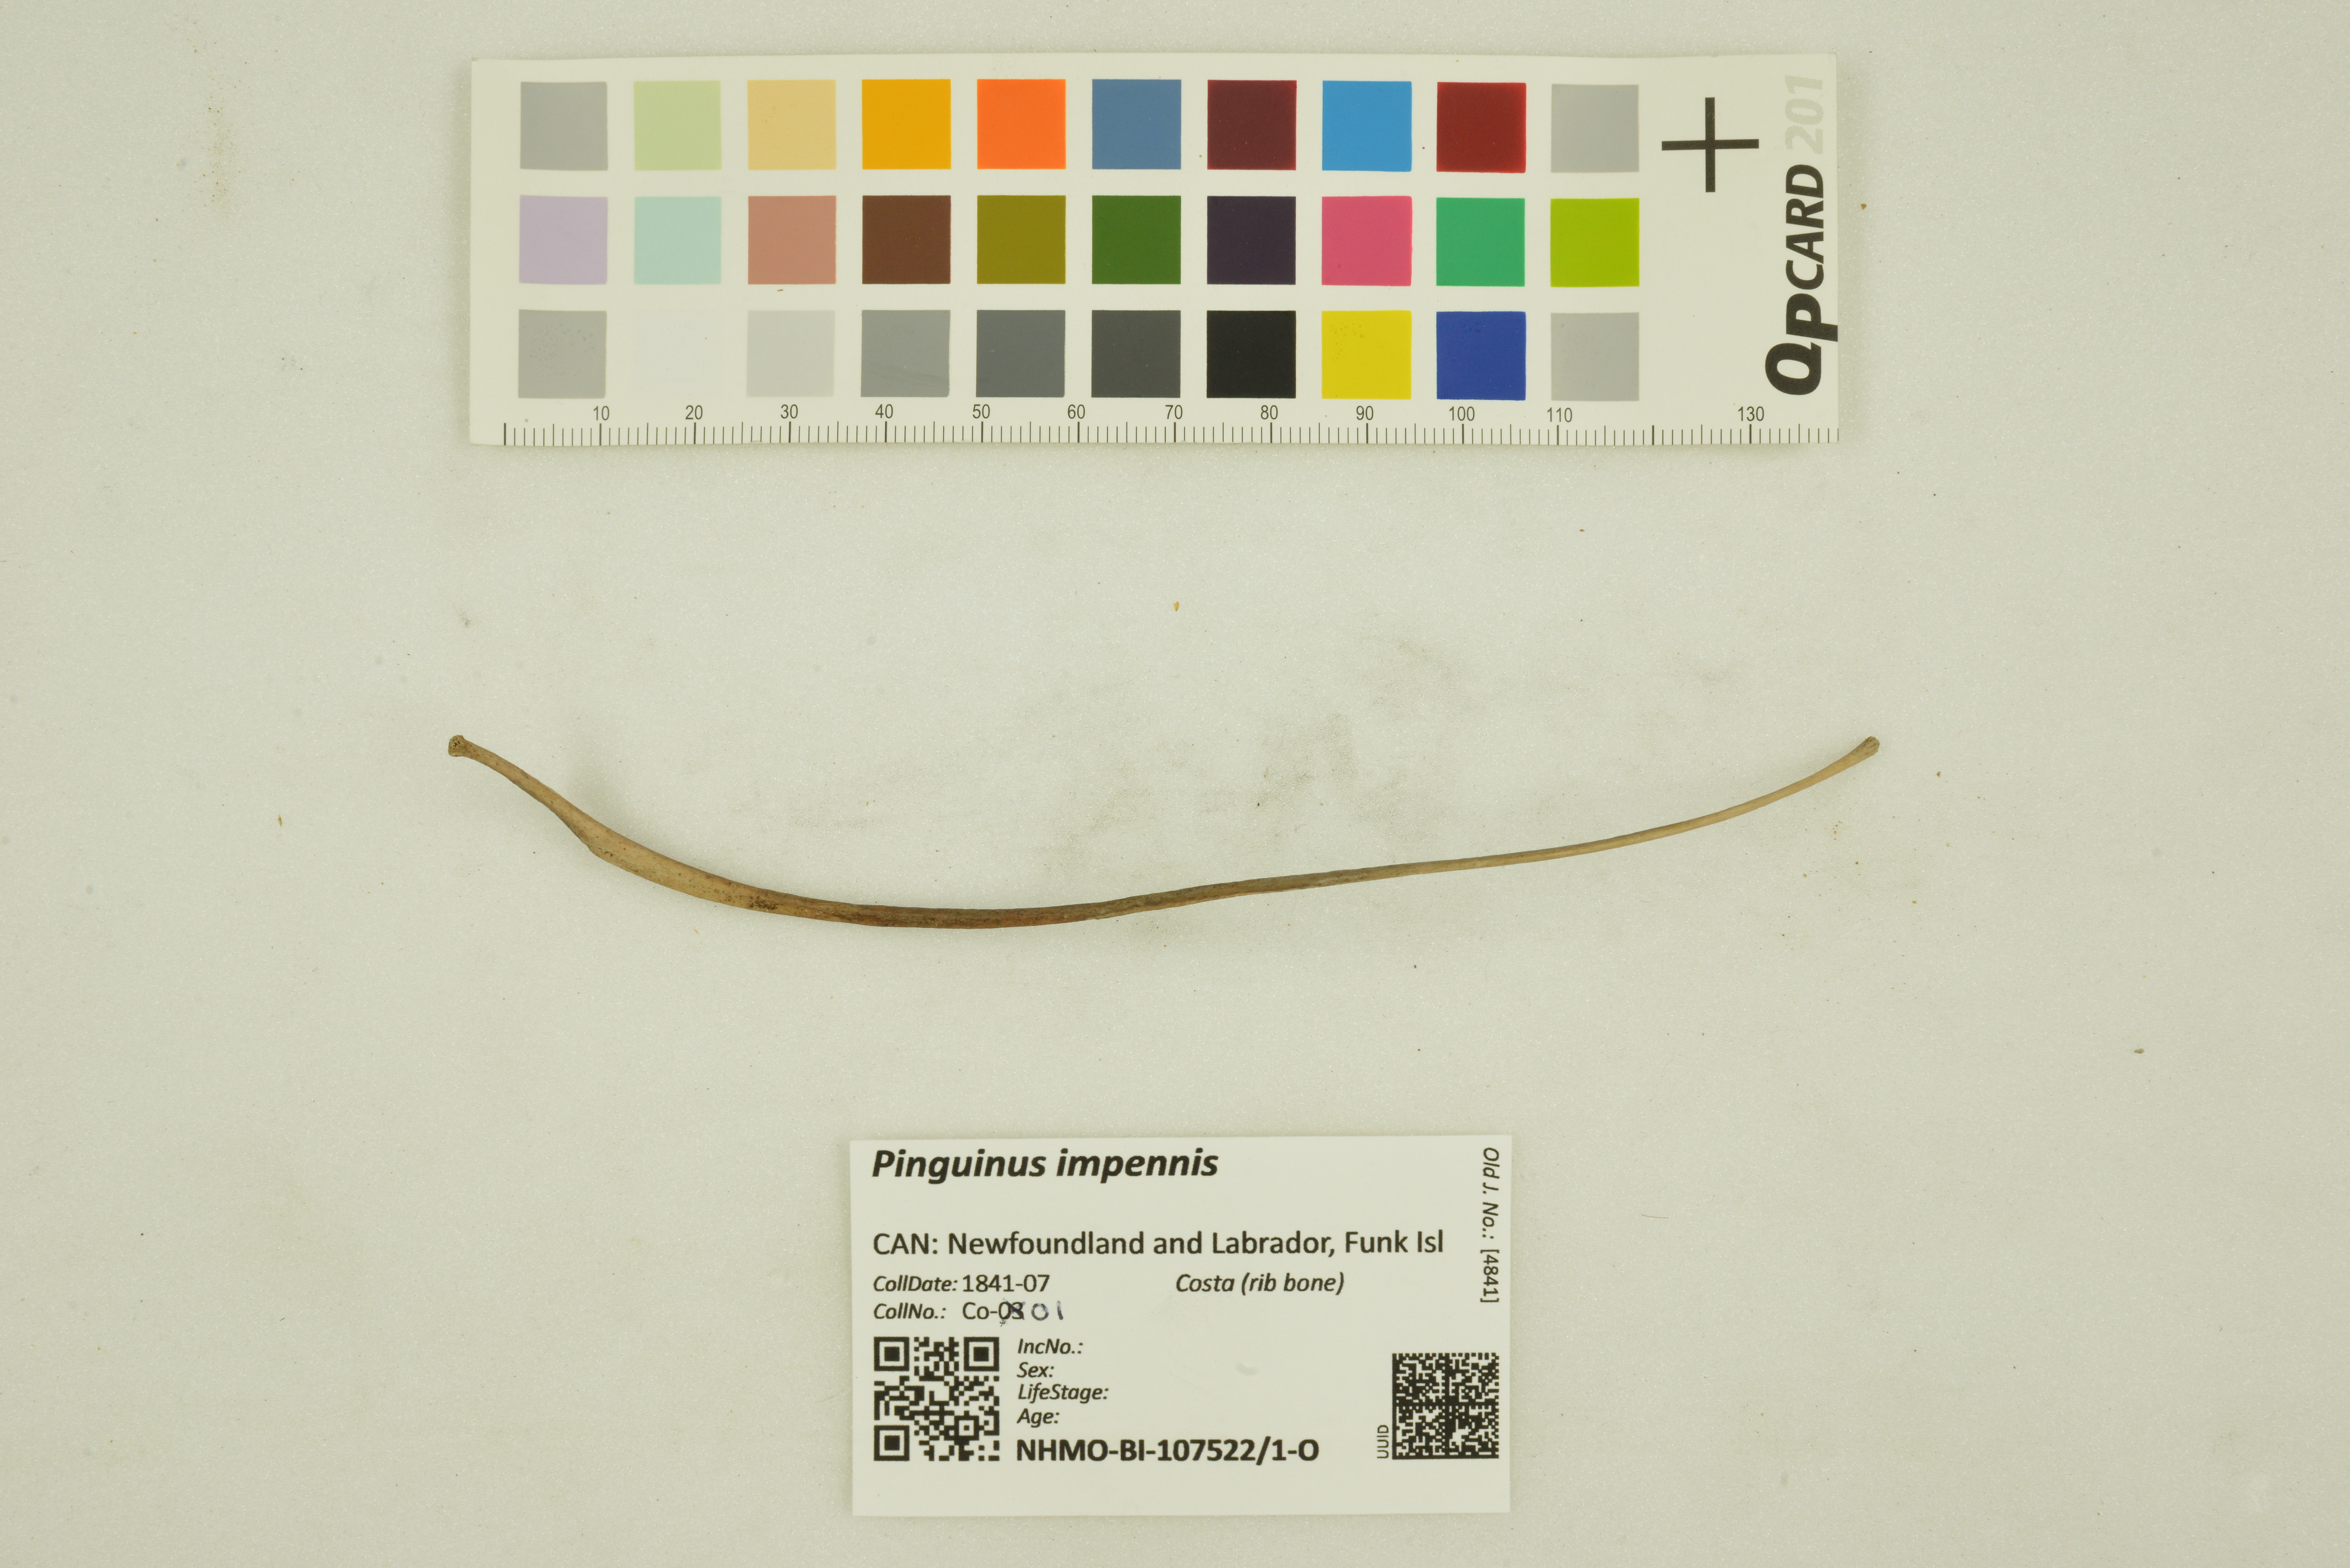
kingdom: Animalia
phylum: Chordata
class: Aves
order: Charadriiformes
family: Alcidae
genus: Pinguinus
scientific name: Pinguinus impennis
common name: Great auk
